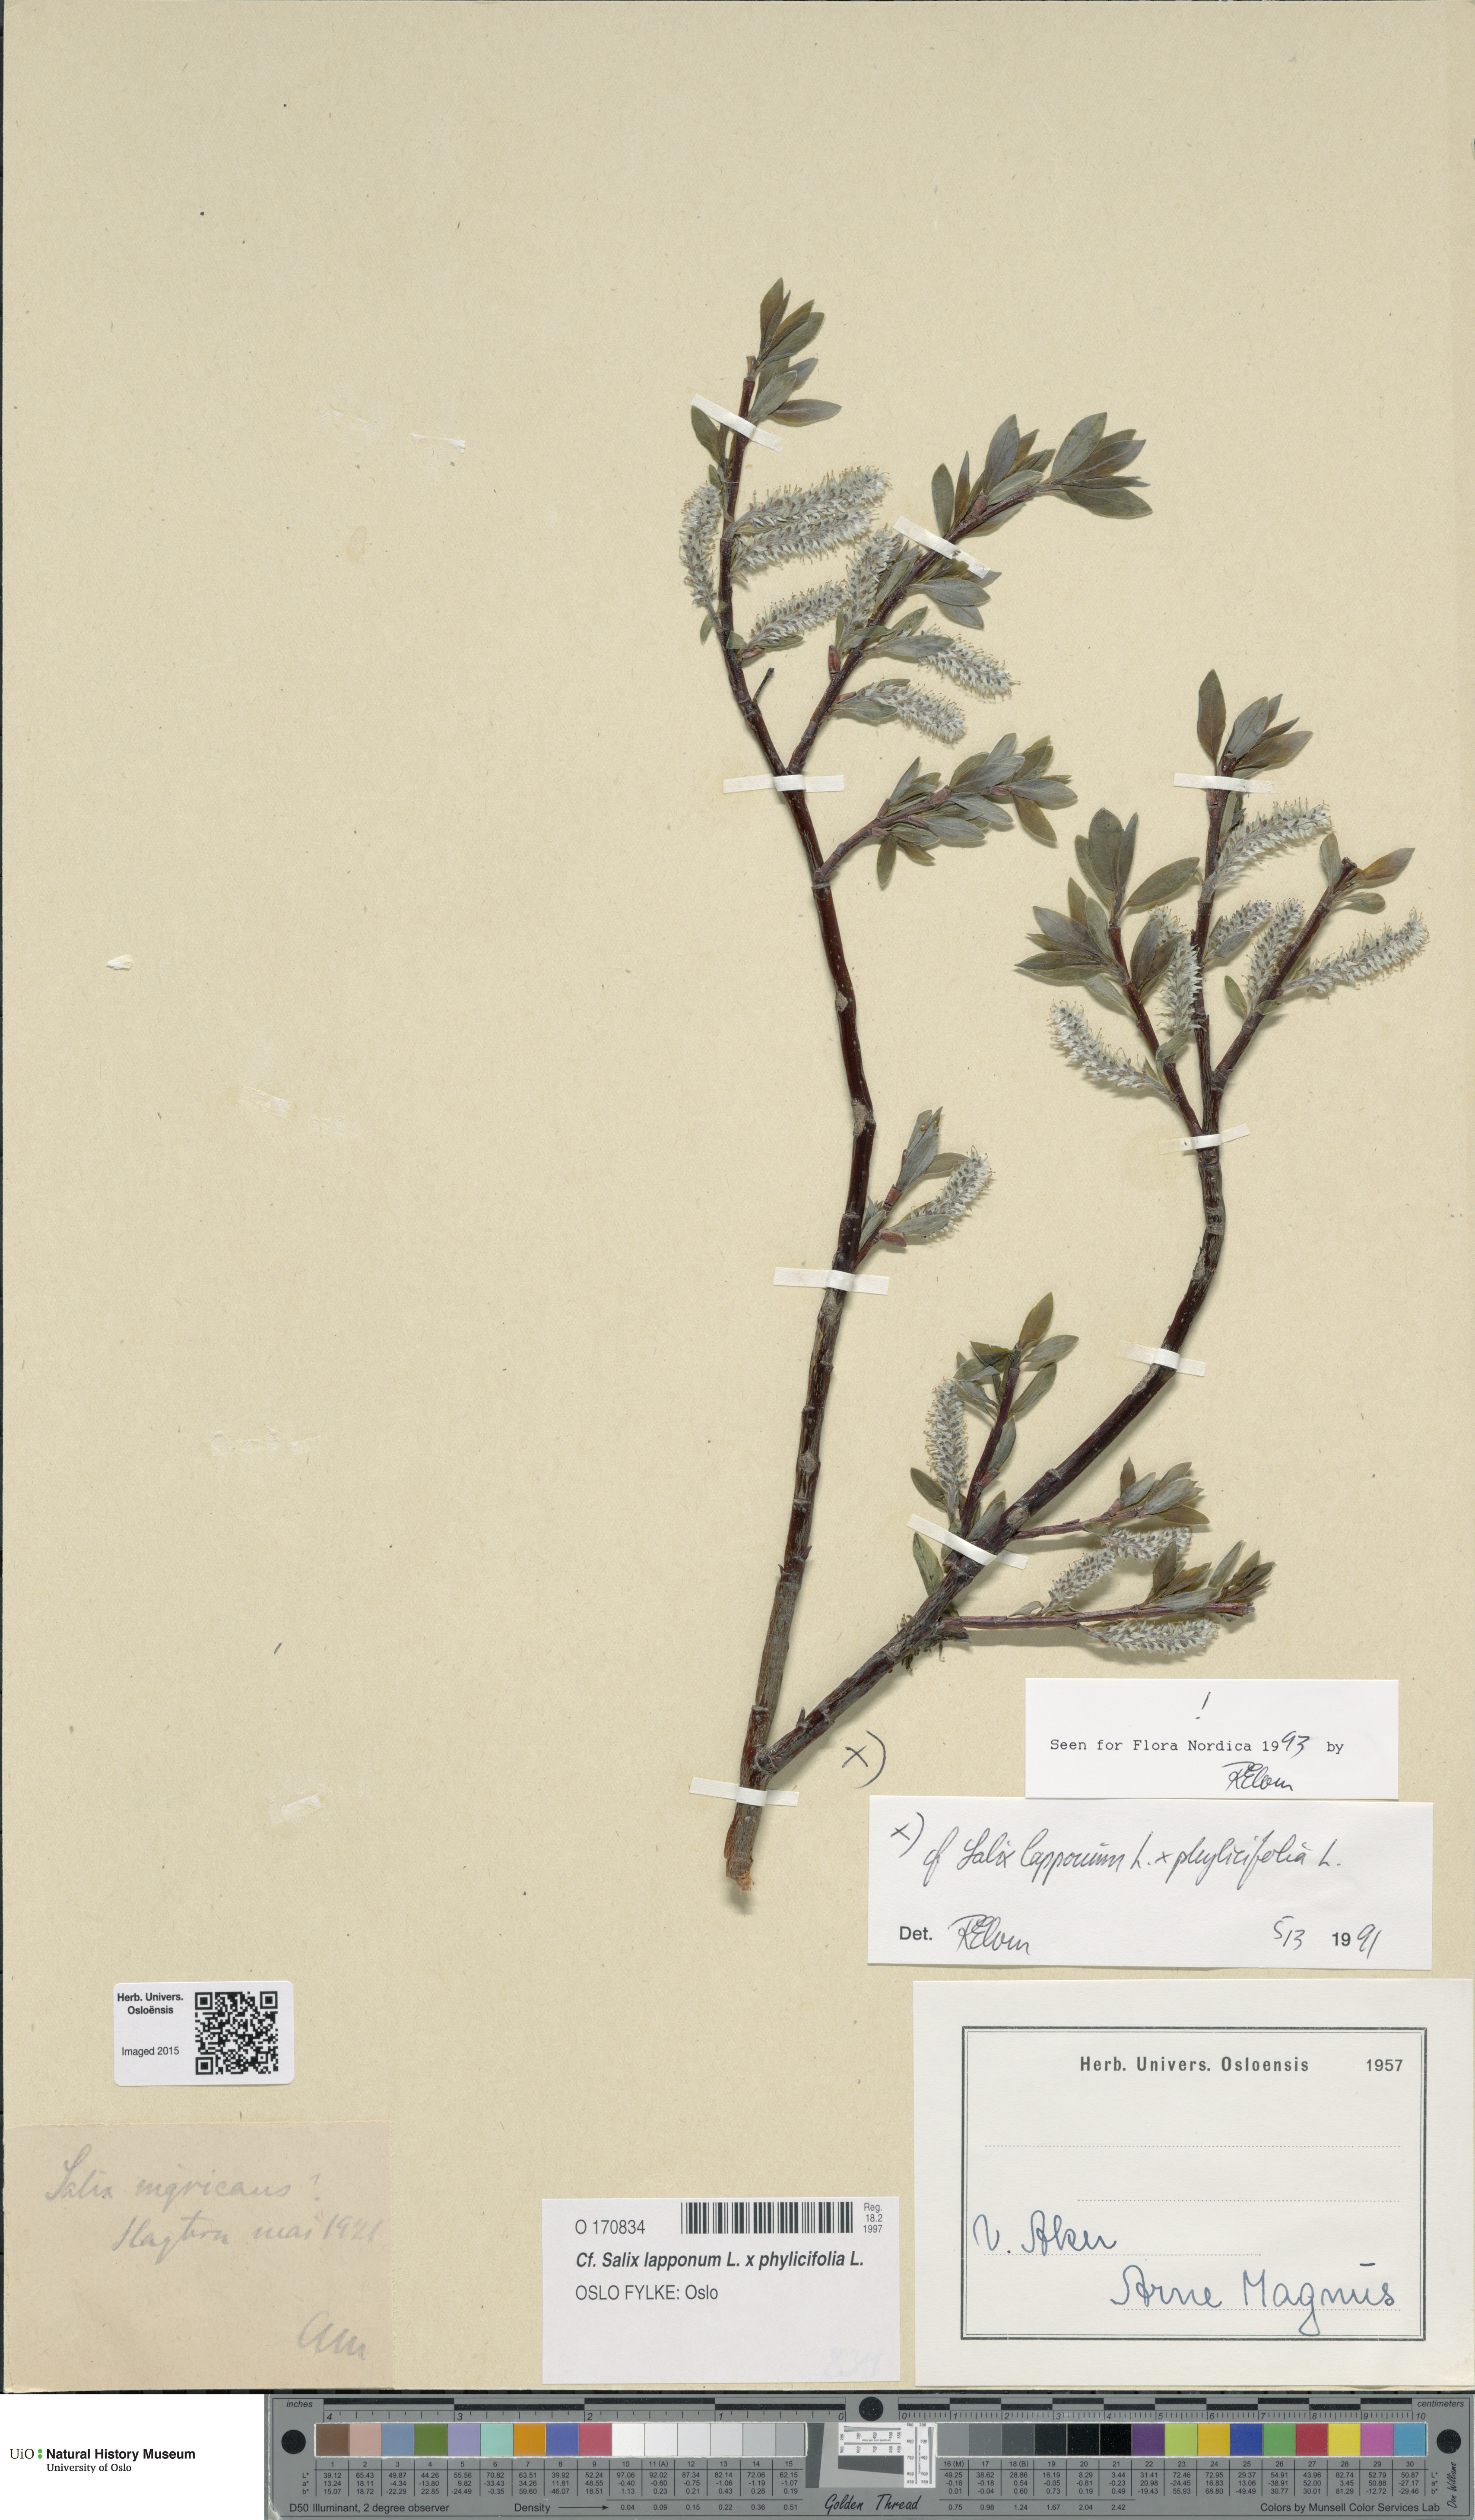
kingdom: Plantae
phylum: Tracheophyta
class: Magnoliopsida
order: Malpighiales
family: Salicaceae
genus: Salix
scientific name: Salix
